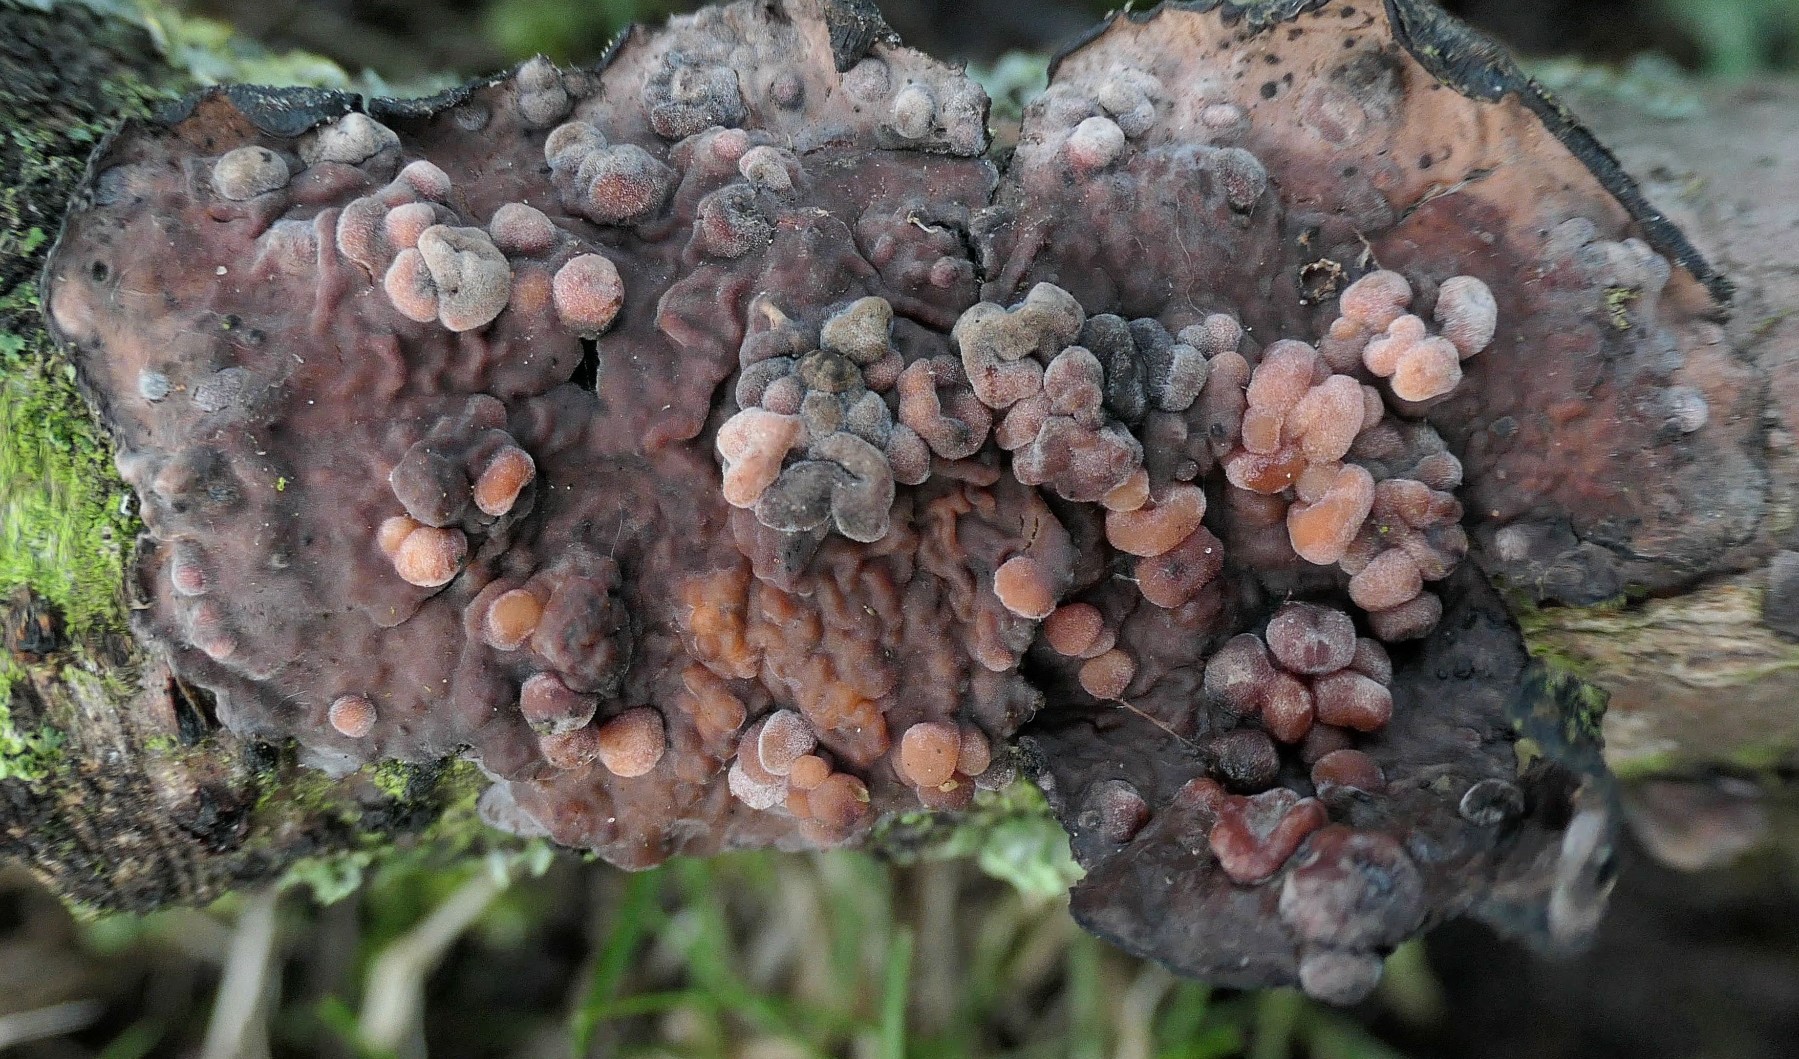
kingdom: Fungi
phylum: Basidiomycota
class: Agaricomycetes
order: Russulales
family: Peniophoraceae
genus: Peniophora
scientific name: Peniophora quercina
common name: ege-voksskind
